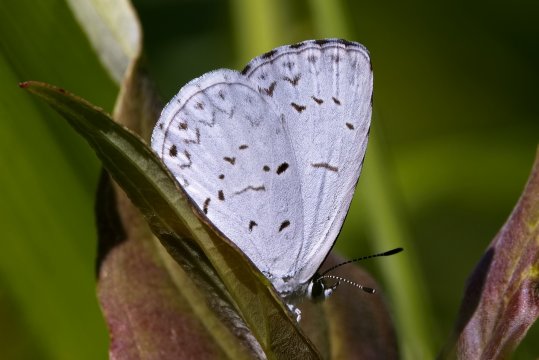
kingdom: Animalia
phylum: Arthropoda
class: Insecta
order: Lepidoptera
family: Lycaenidae
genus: Celastrina
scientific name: Celastrina lucia
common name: Northern Spring Azure
